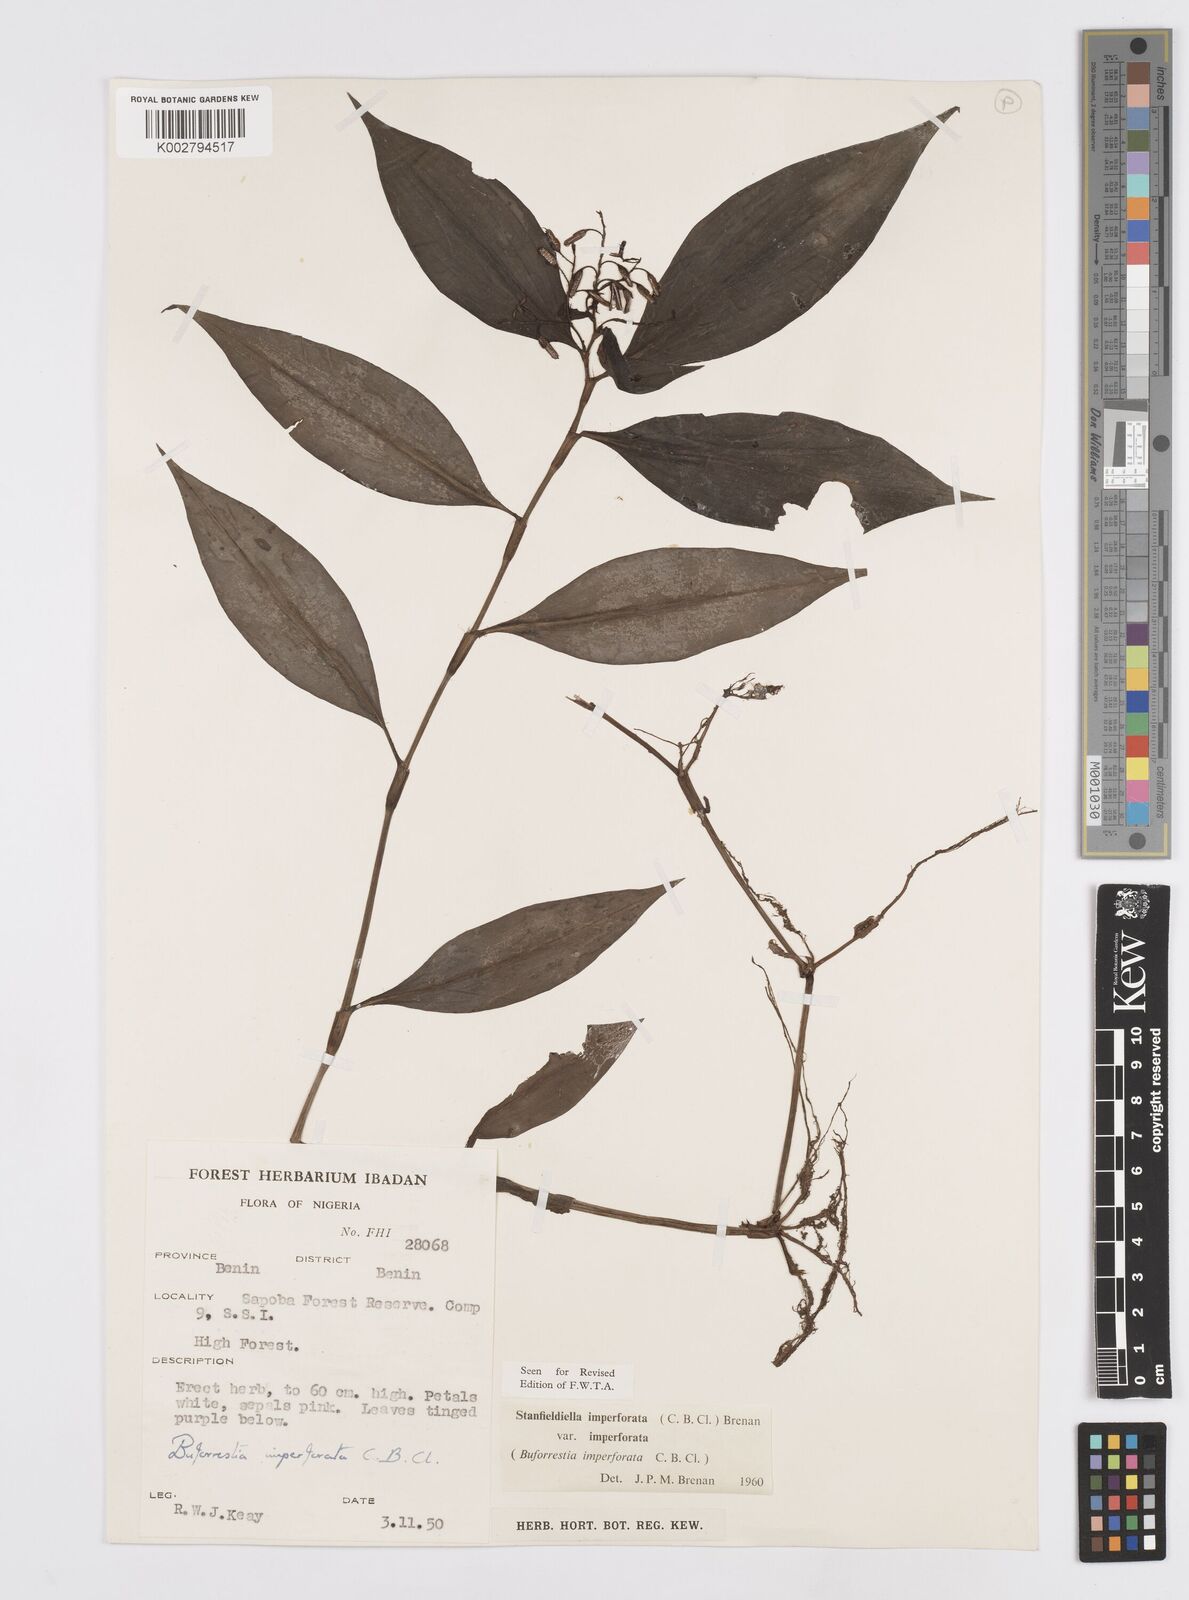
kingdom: Plantae
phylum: Tracheophyta
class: Liliopsida
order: Commelinales
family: Commelinaceae
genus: Stanfieldiella
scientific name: Stanfieldiella imperforata
